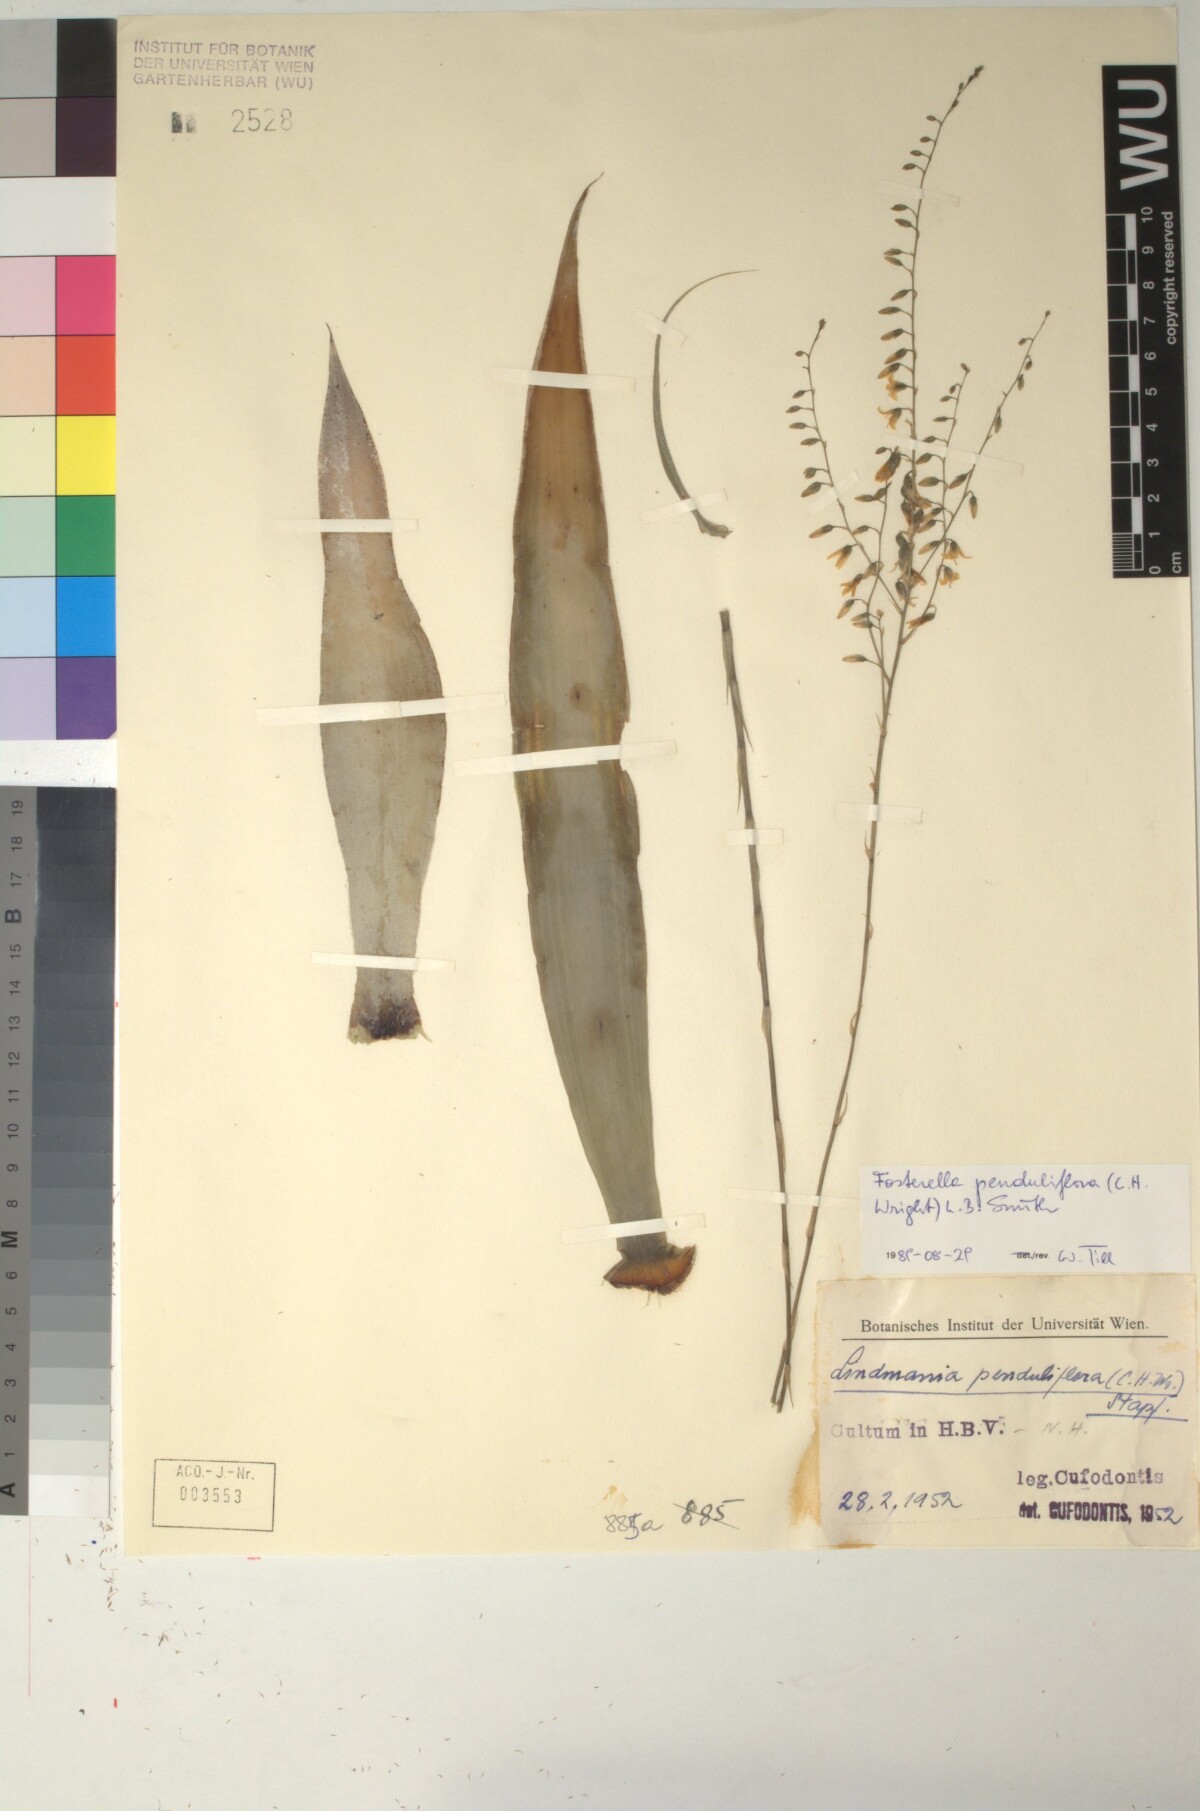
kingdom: Plantae
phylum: Tracheophyta
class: Liliopsida
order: Poales
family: Bromeliaceae
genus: Fosterella
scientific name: Fosterella penduliflora
